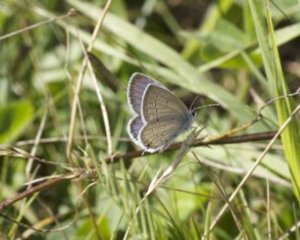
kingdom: Animalia
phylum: Arthropoda
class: Insecta
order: Lepidoptera
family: Lycaenidae
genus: Elkalyce
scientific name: Elkalyce comyntas
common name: Eastern Tailed-Blue
